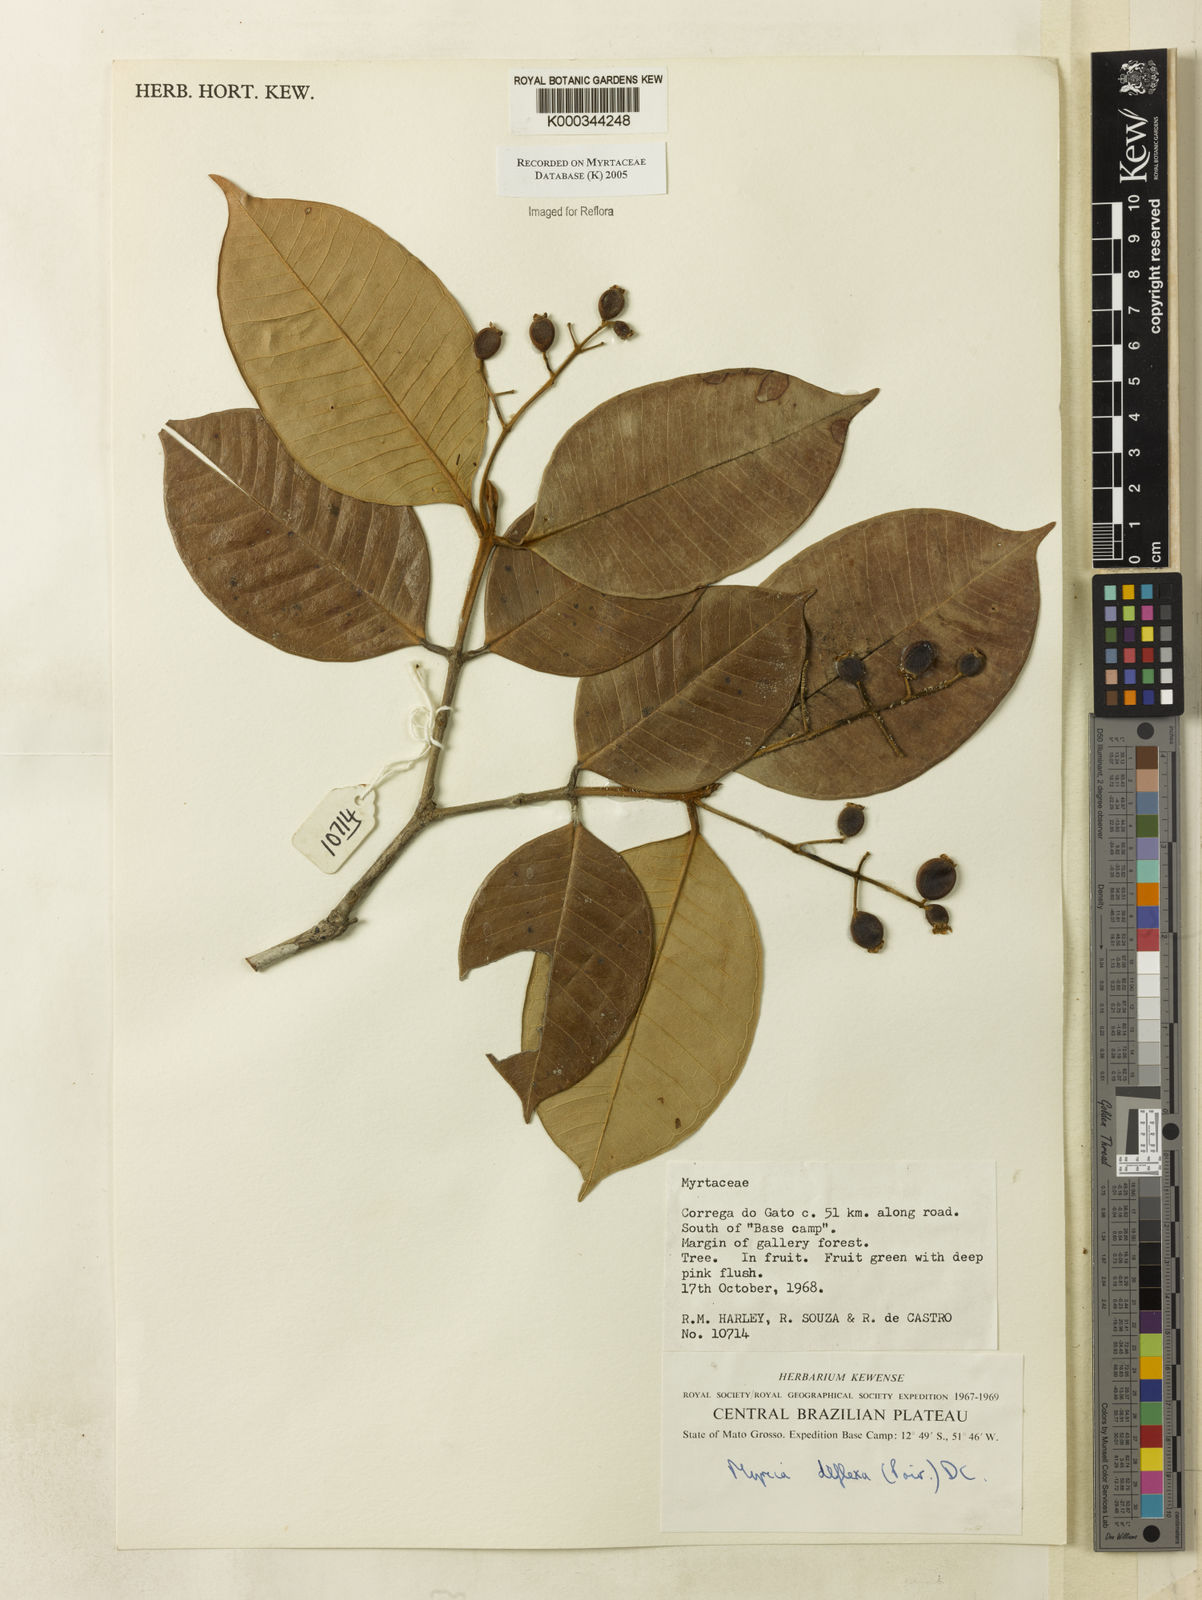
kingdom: Plantae
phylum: Tracheophyta
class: Magnoliopsida
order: Myrtales
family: Myrtaceae
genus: Myrcia
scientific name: Myrcia deflexa
